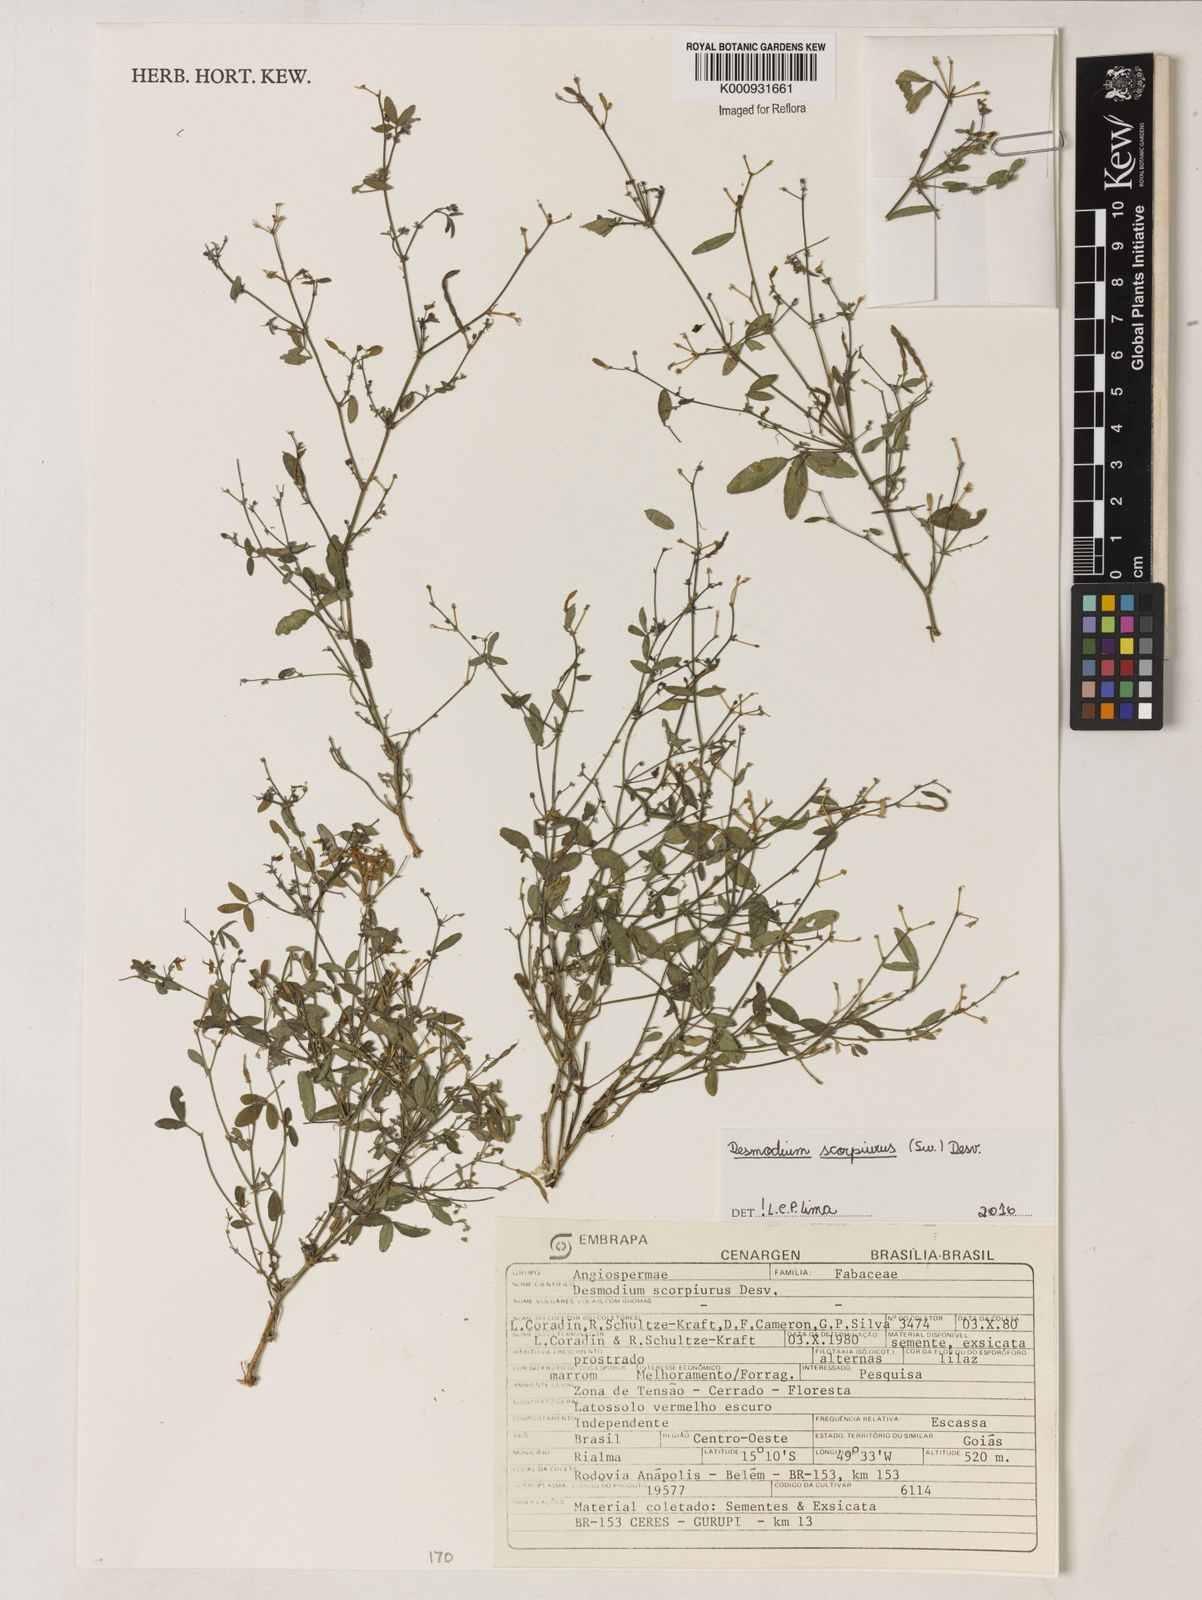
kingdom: Plantae
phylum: Tracheophyta
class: Magnoliopsida
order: Fabales
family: Fabaceae
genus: Desmodium
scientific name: Desmodium
